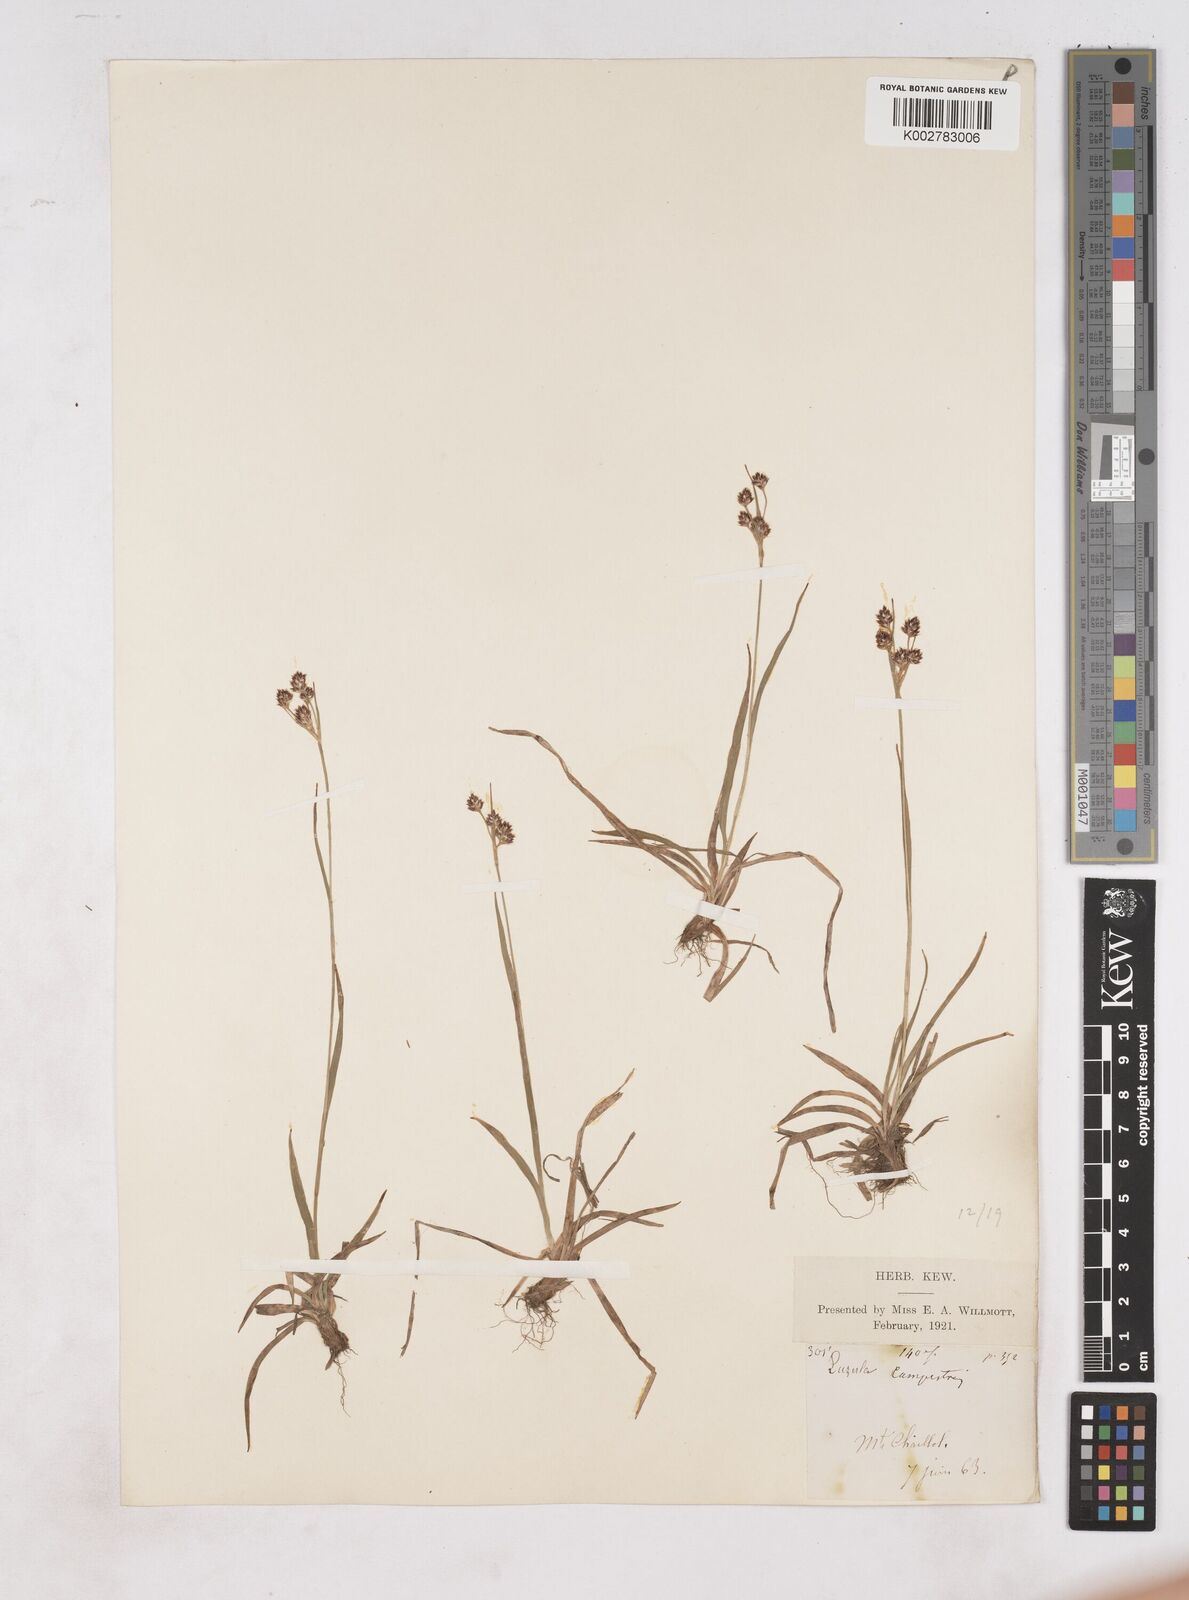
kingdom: Plantae
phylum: Tracheophyta
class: Liliopsida
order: Poales
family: Juncaceae
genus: Luzula
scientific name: Luzula campestris
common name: Field wood-rush
